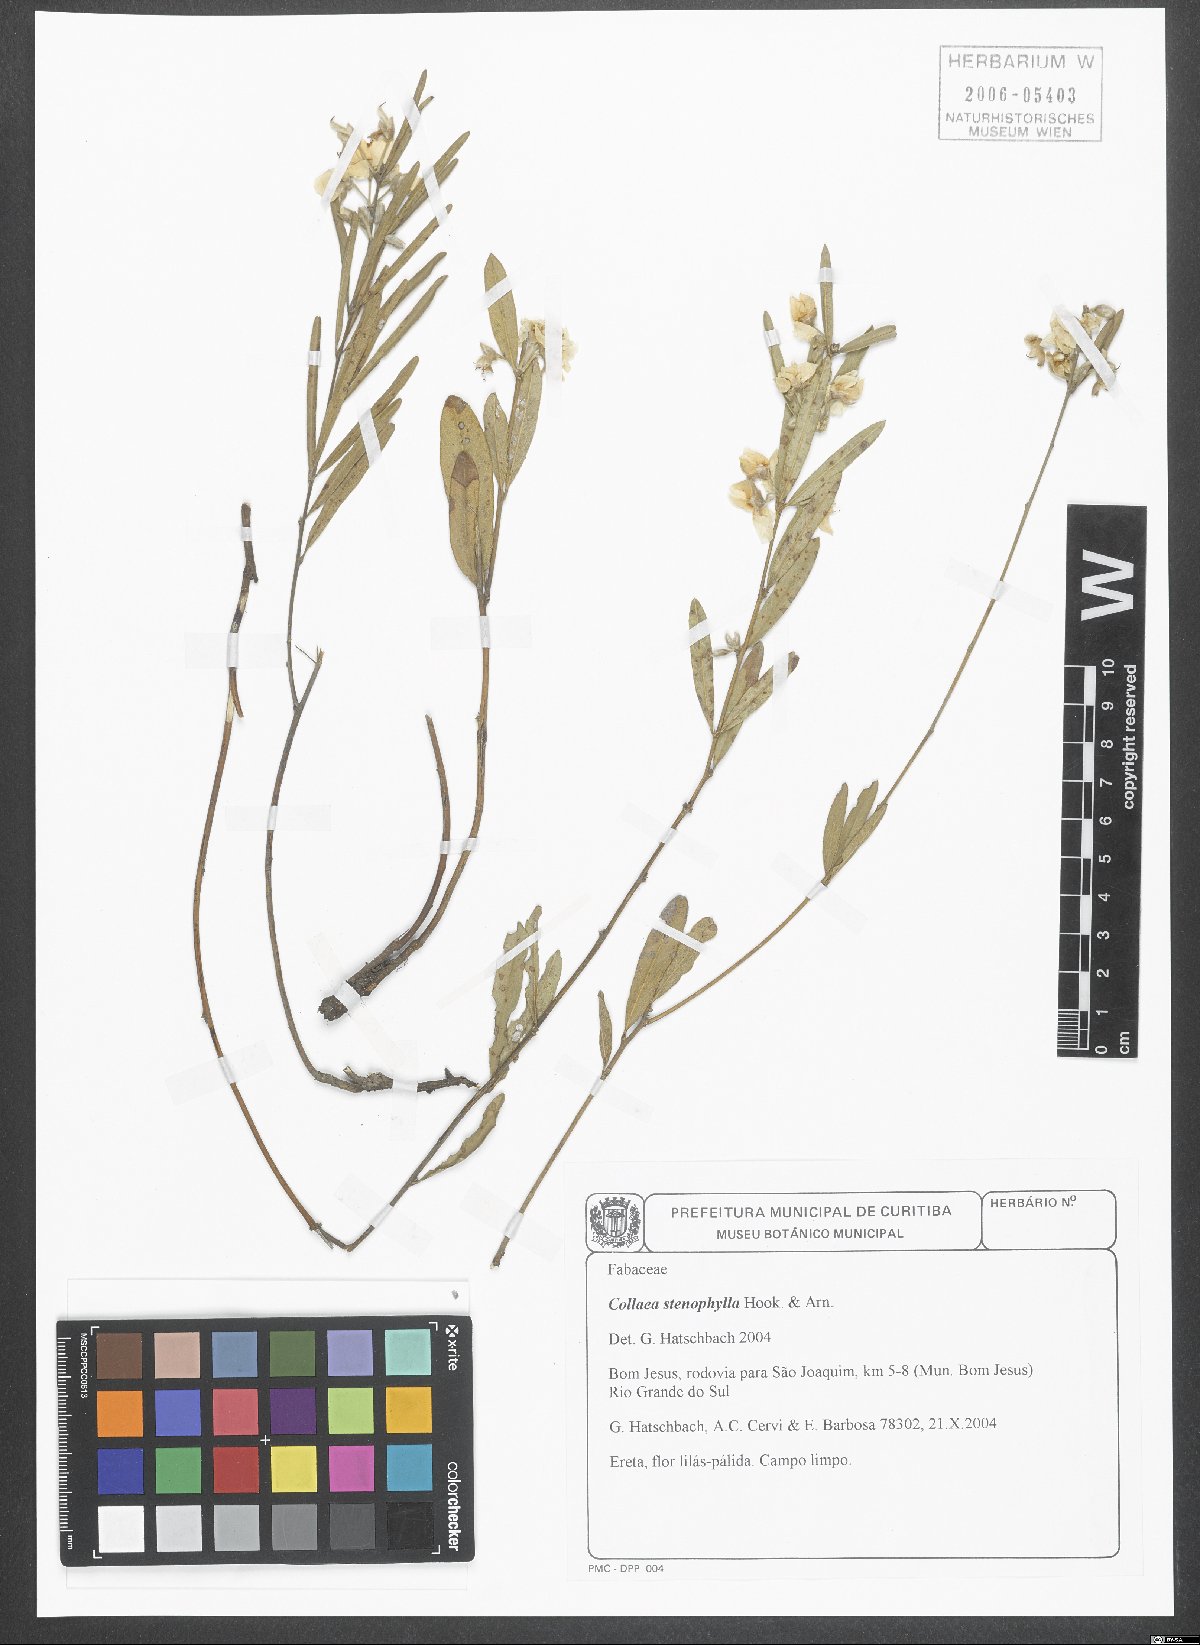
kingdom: Plantae
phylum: Tracheophyta
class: Magnoliopsida
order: Fabales
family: Fabaceae
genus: Collaea
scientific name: Collaea stenophylla
